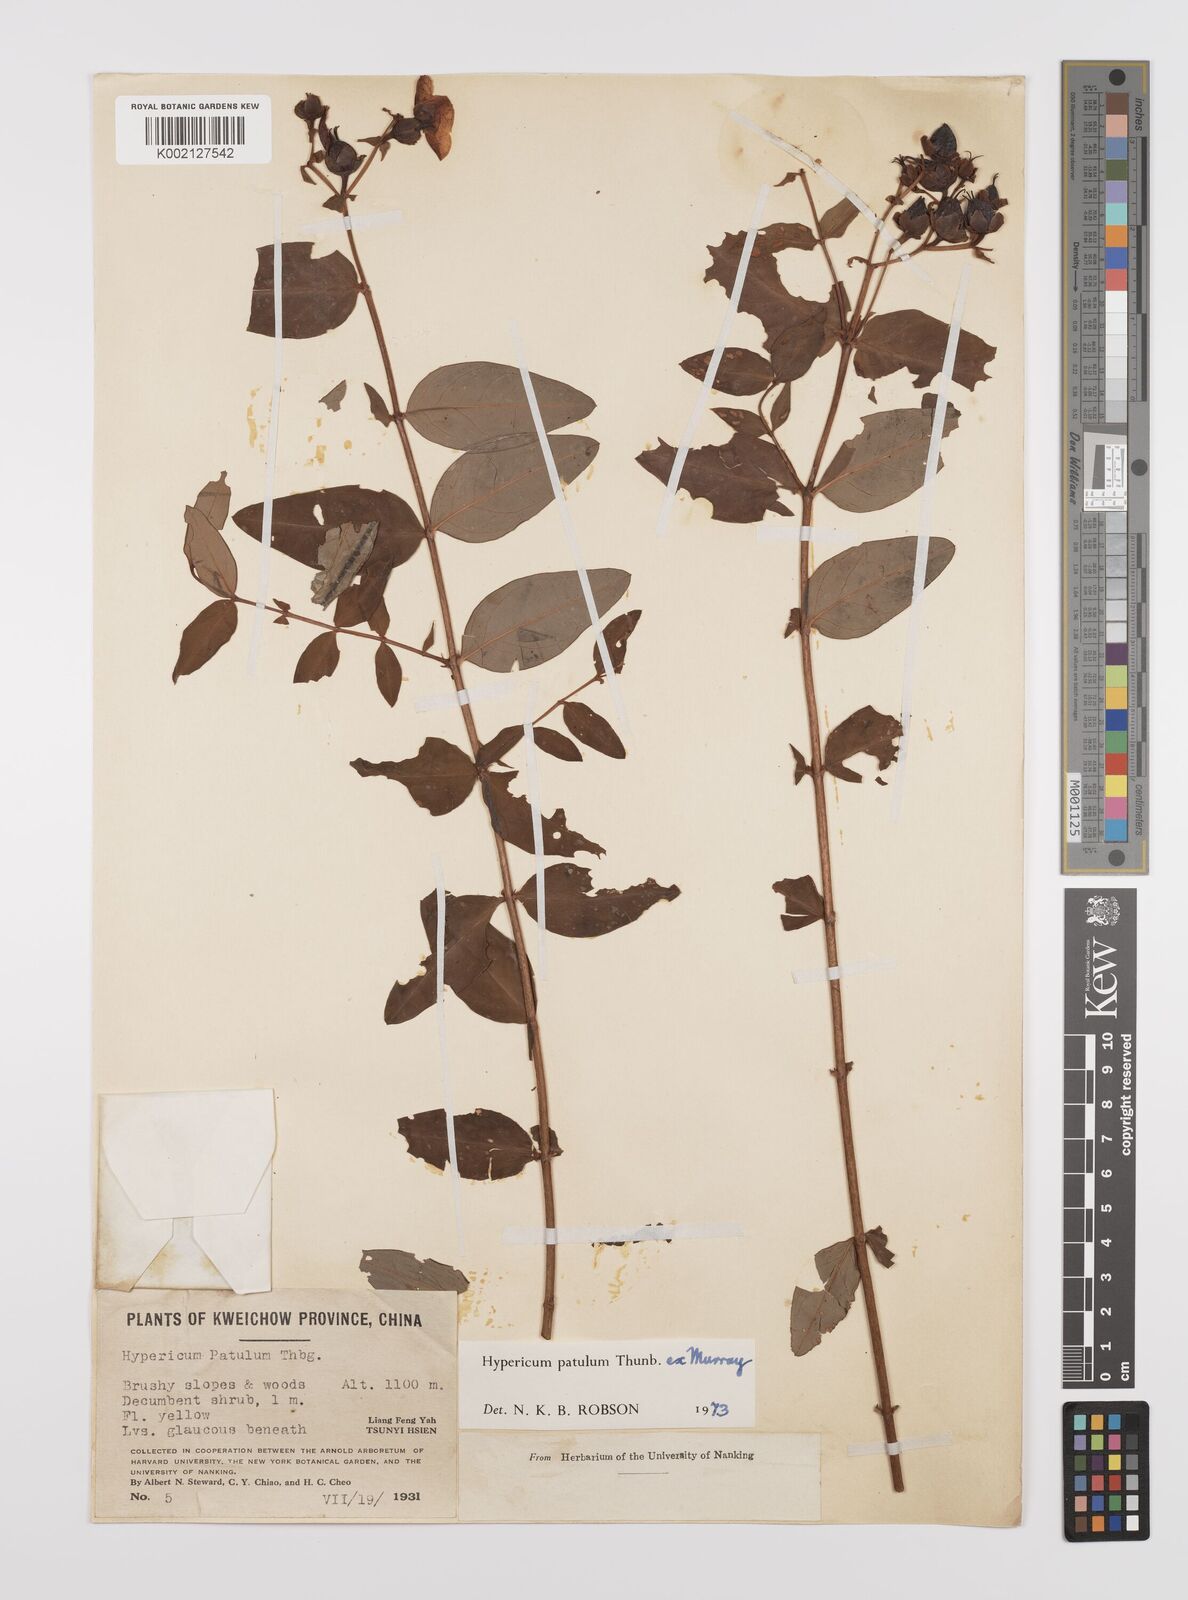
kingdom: Plantae
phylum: Tracheophyta
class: Magnoliopsida
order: Malpighiales
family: Hypericaceae
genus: Hypericum
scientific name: Hypericum patulum
